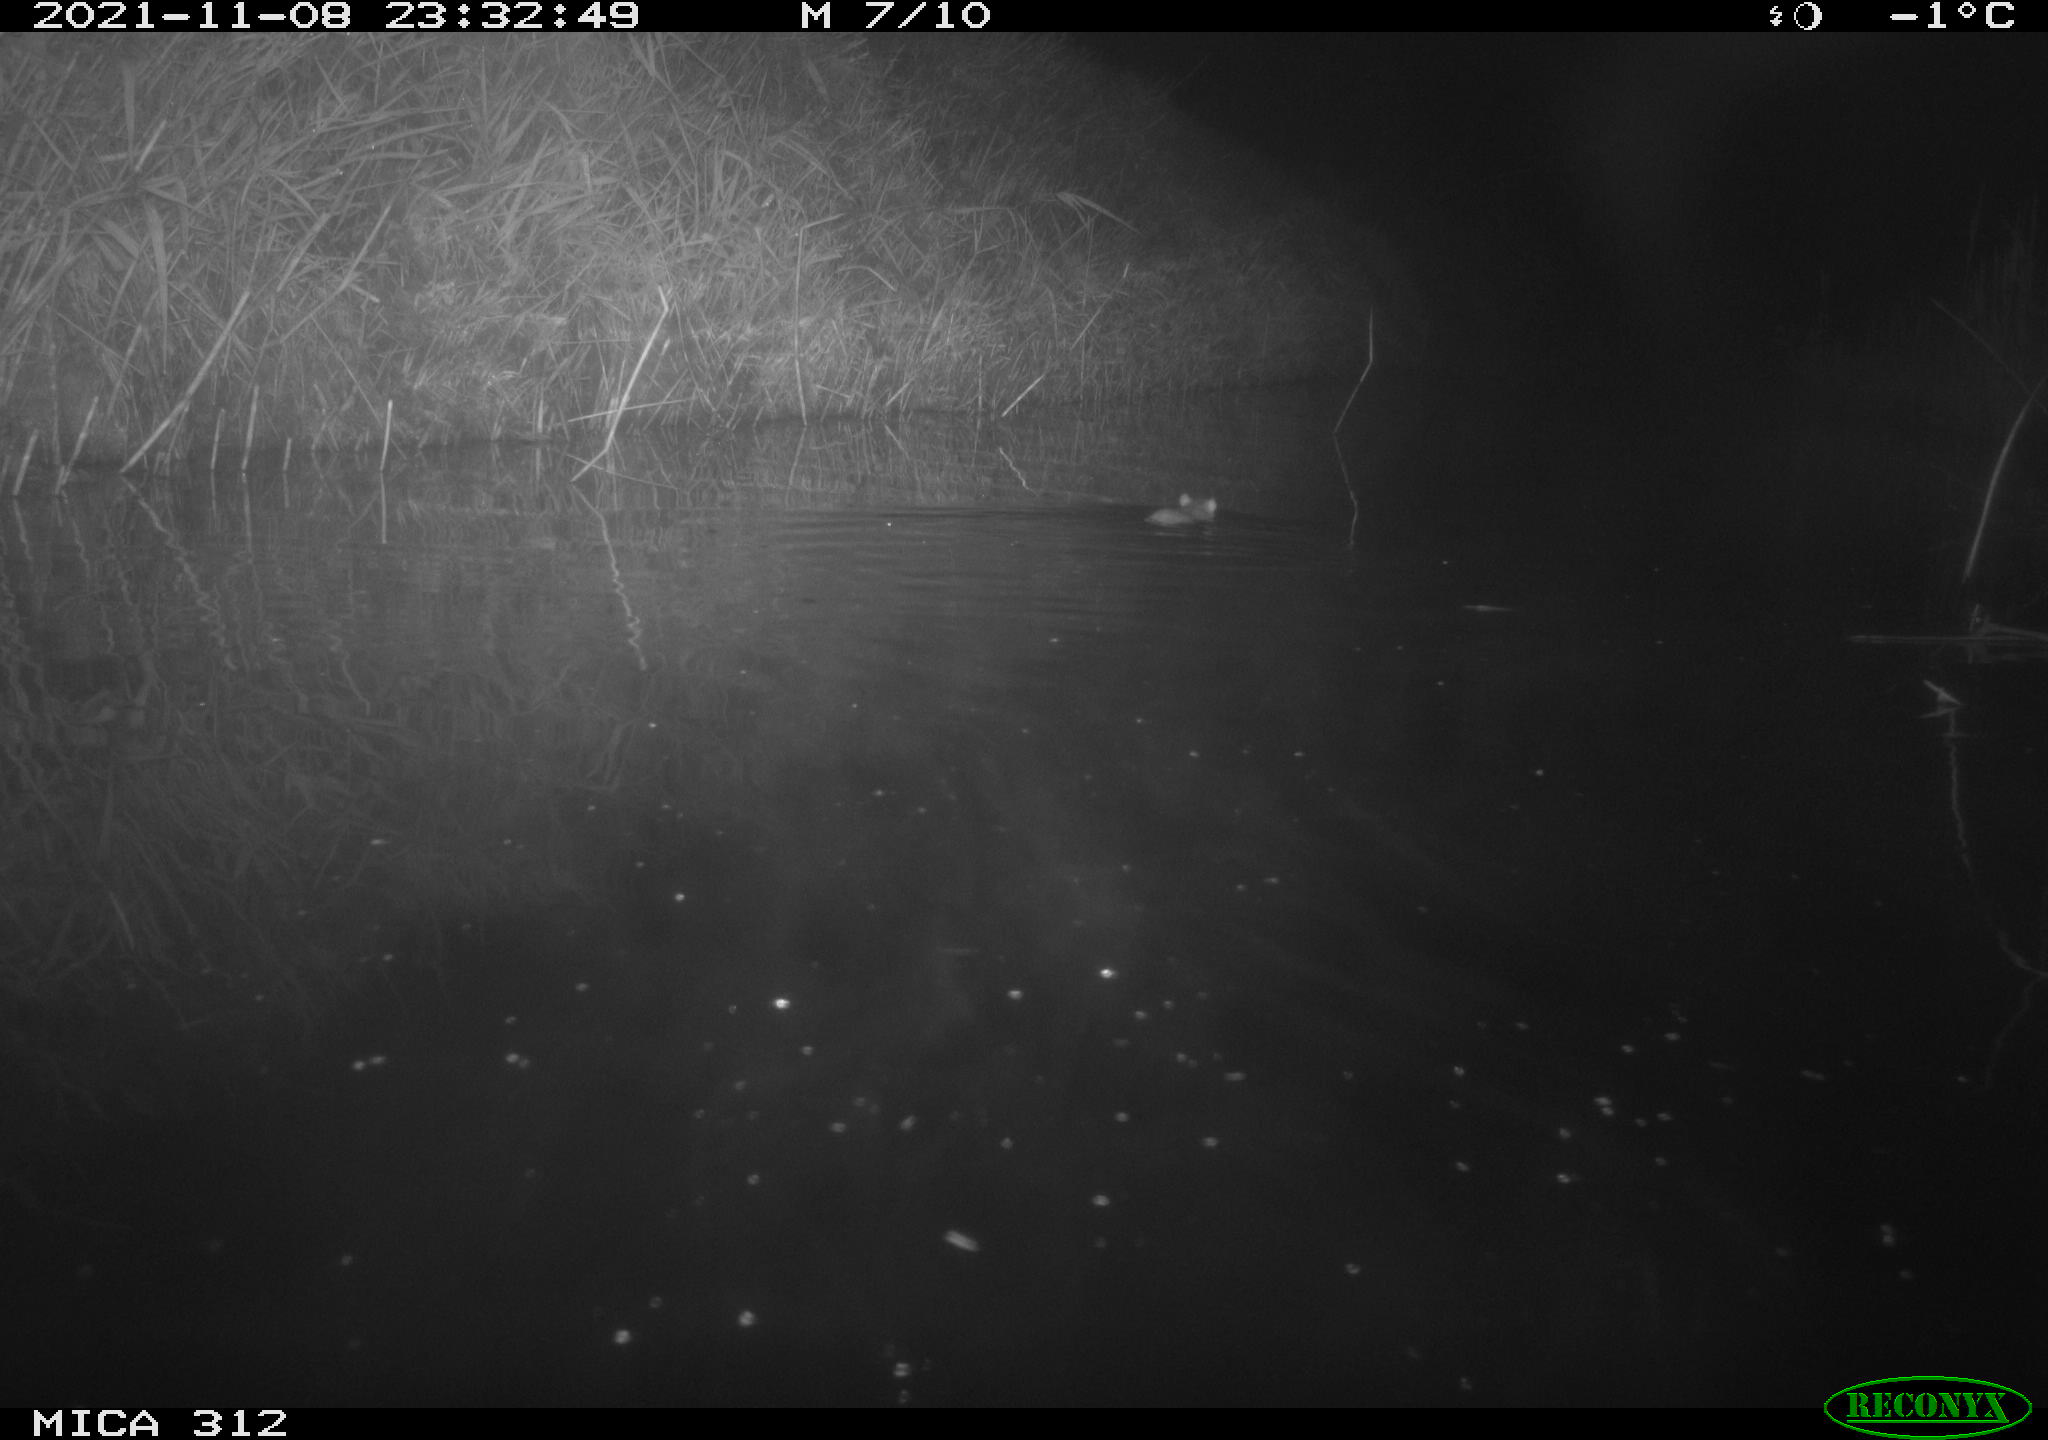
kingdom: Animalia
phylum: Chordata
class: Mammalia
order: Rodentia
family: Cricetidae
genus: Ondatra
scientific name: Ondatra zibethicus
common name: Muskrat
